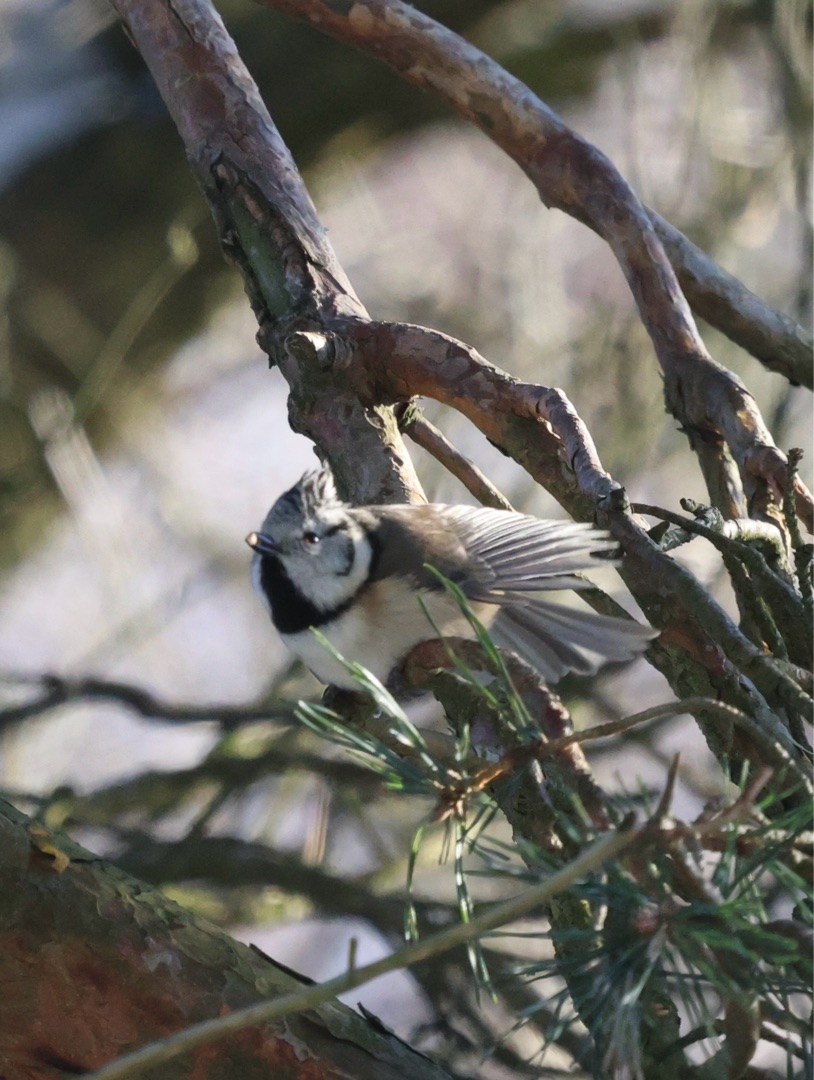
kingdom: Animalia
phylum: Chordata
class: Aves
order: Passeriformes
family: Paridae
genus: Lophophanes
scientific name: Lophophanes cristatus
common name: Topmejse
